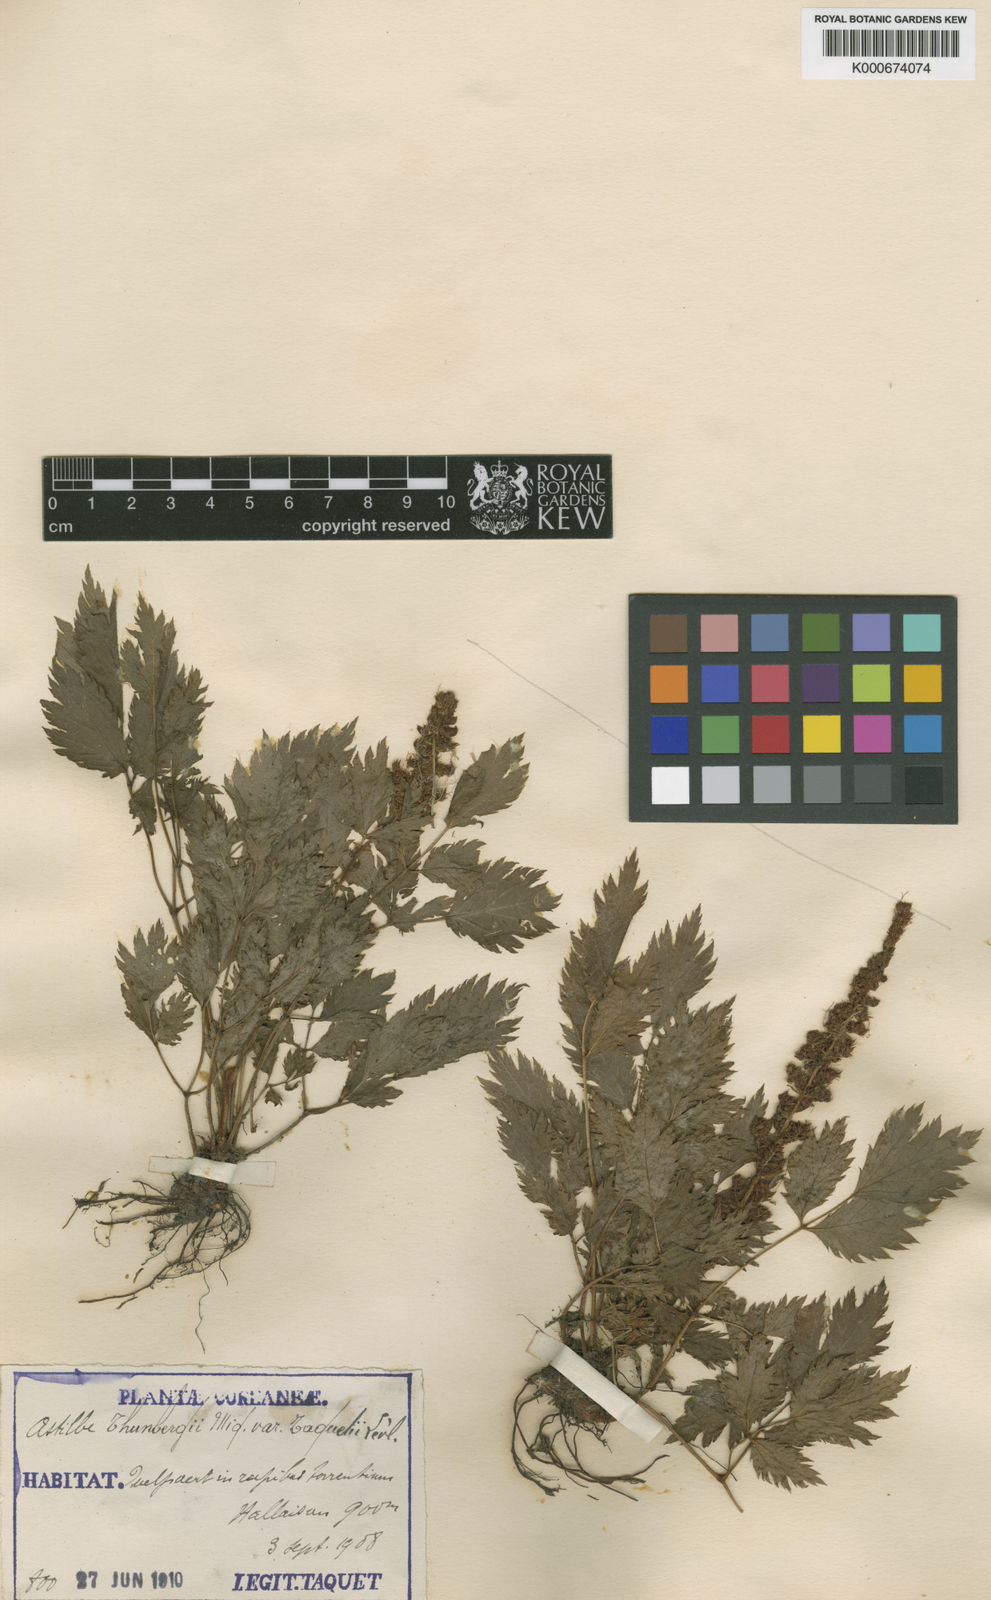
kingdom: Plantae
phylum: Tracheophyta
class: Magnoliopsida
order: Saxifragales
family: Saxifragaceae
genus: Astilbe
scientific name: Astilbe thunbergii
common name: Thunberg's astilbe
